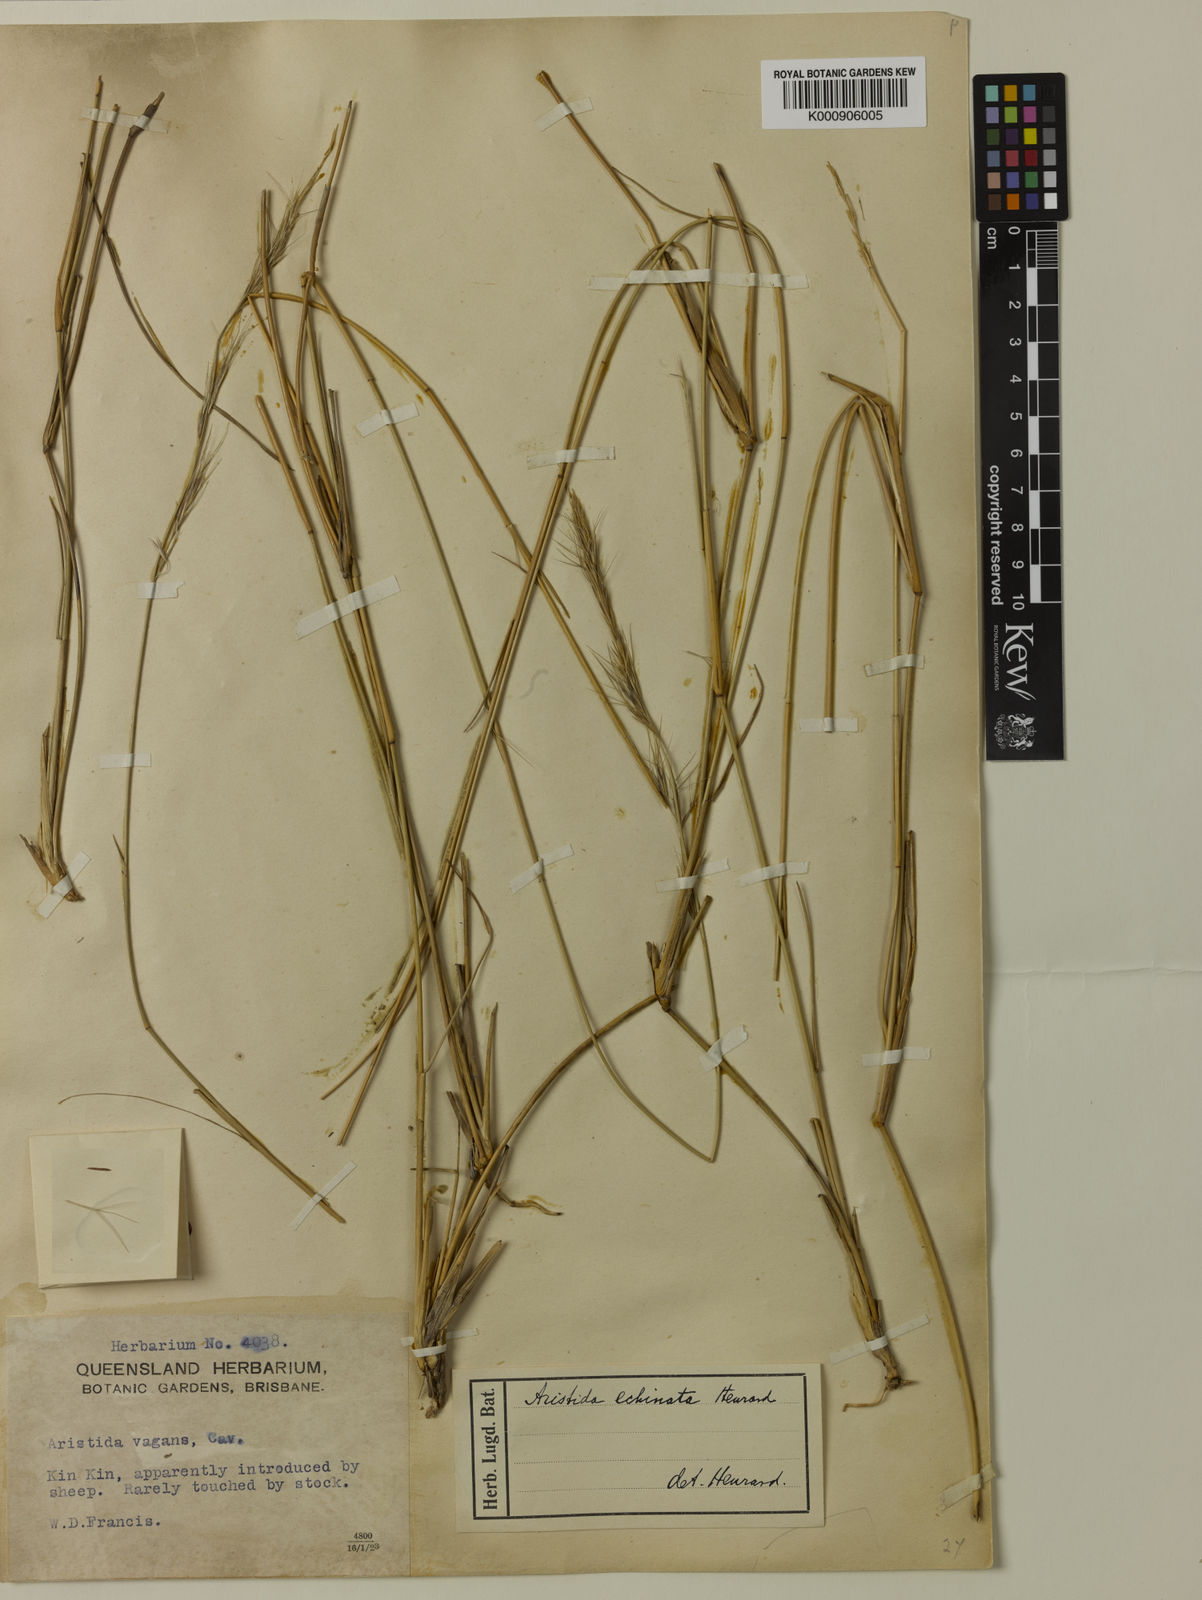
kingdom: Plantae
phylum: Tracheophyta
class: Liliopsida
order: Poales
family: Poaceae
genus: Aristida
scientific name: Aristida echinata
